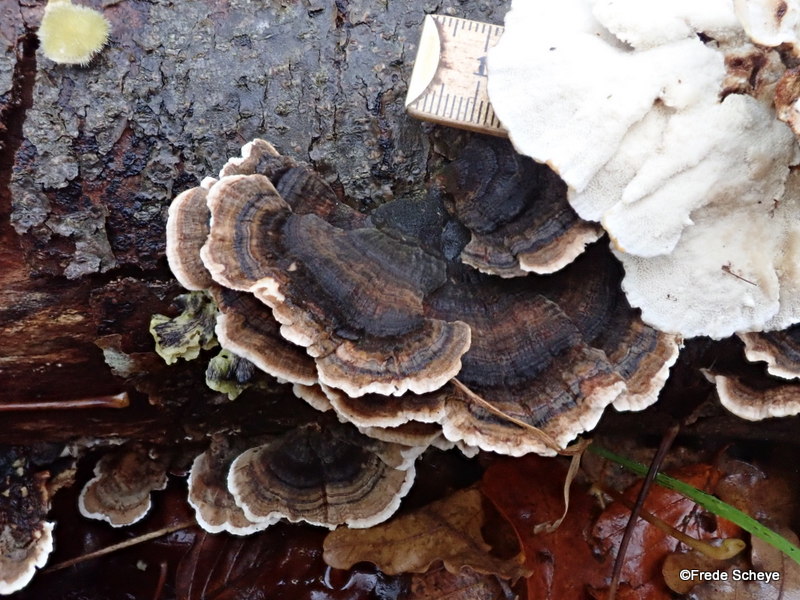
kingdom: Fungi
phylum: Basidiomycota
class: Agaricomycetes
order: Polyporales
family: Polyporaceae
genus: Trametes
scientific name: Trametes versicolor
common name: broget læderporesvamp
